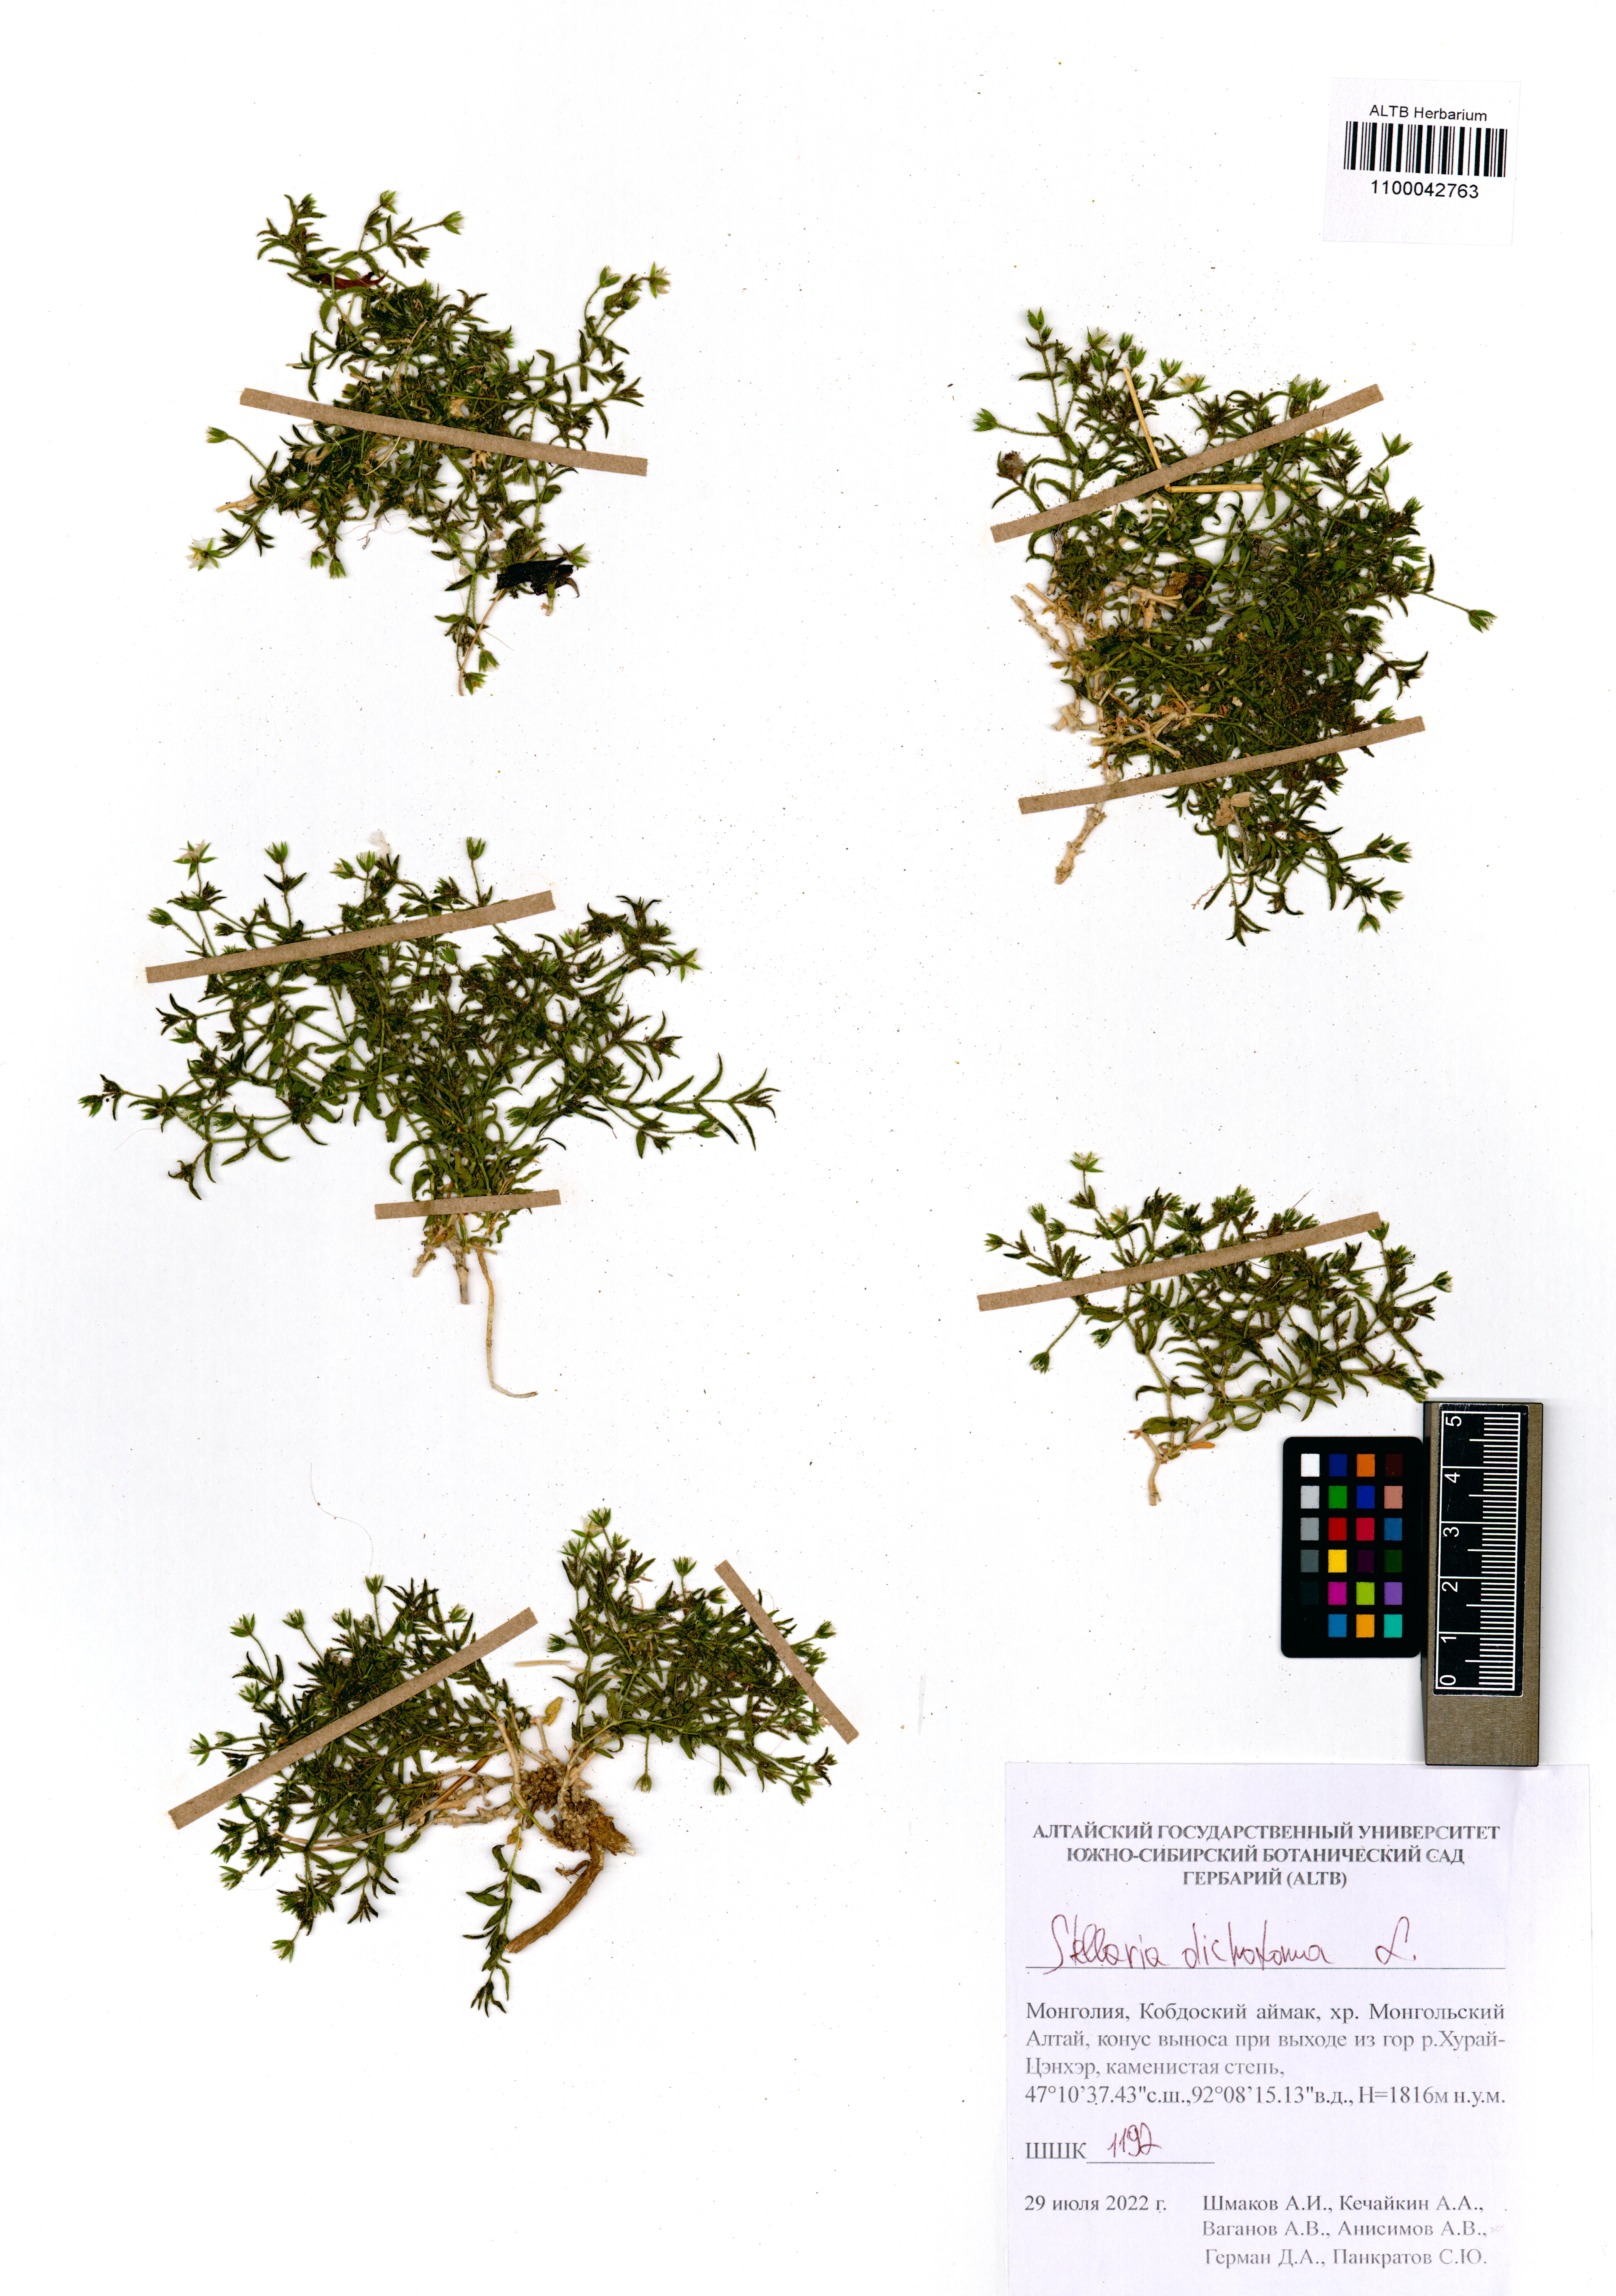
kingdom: Plantae
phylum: Tracheophyta
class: Magnoliopsida
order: Caryophyllales
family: Caryophyllaceae
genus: Mesostemma
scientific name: Mesostemma dichotomum
